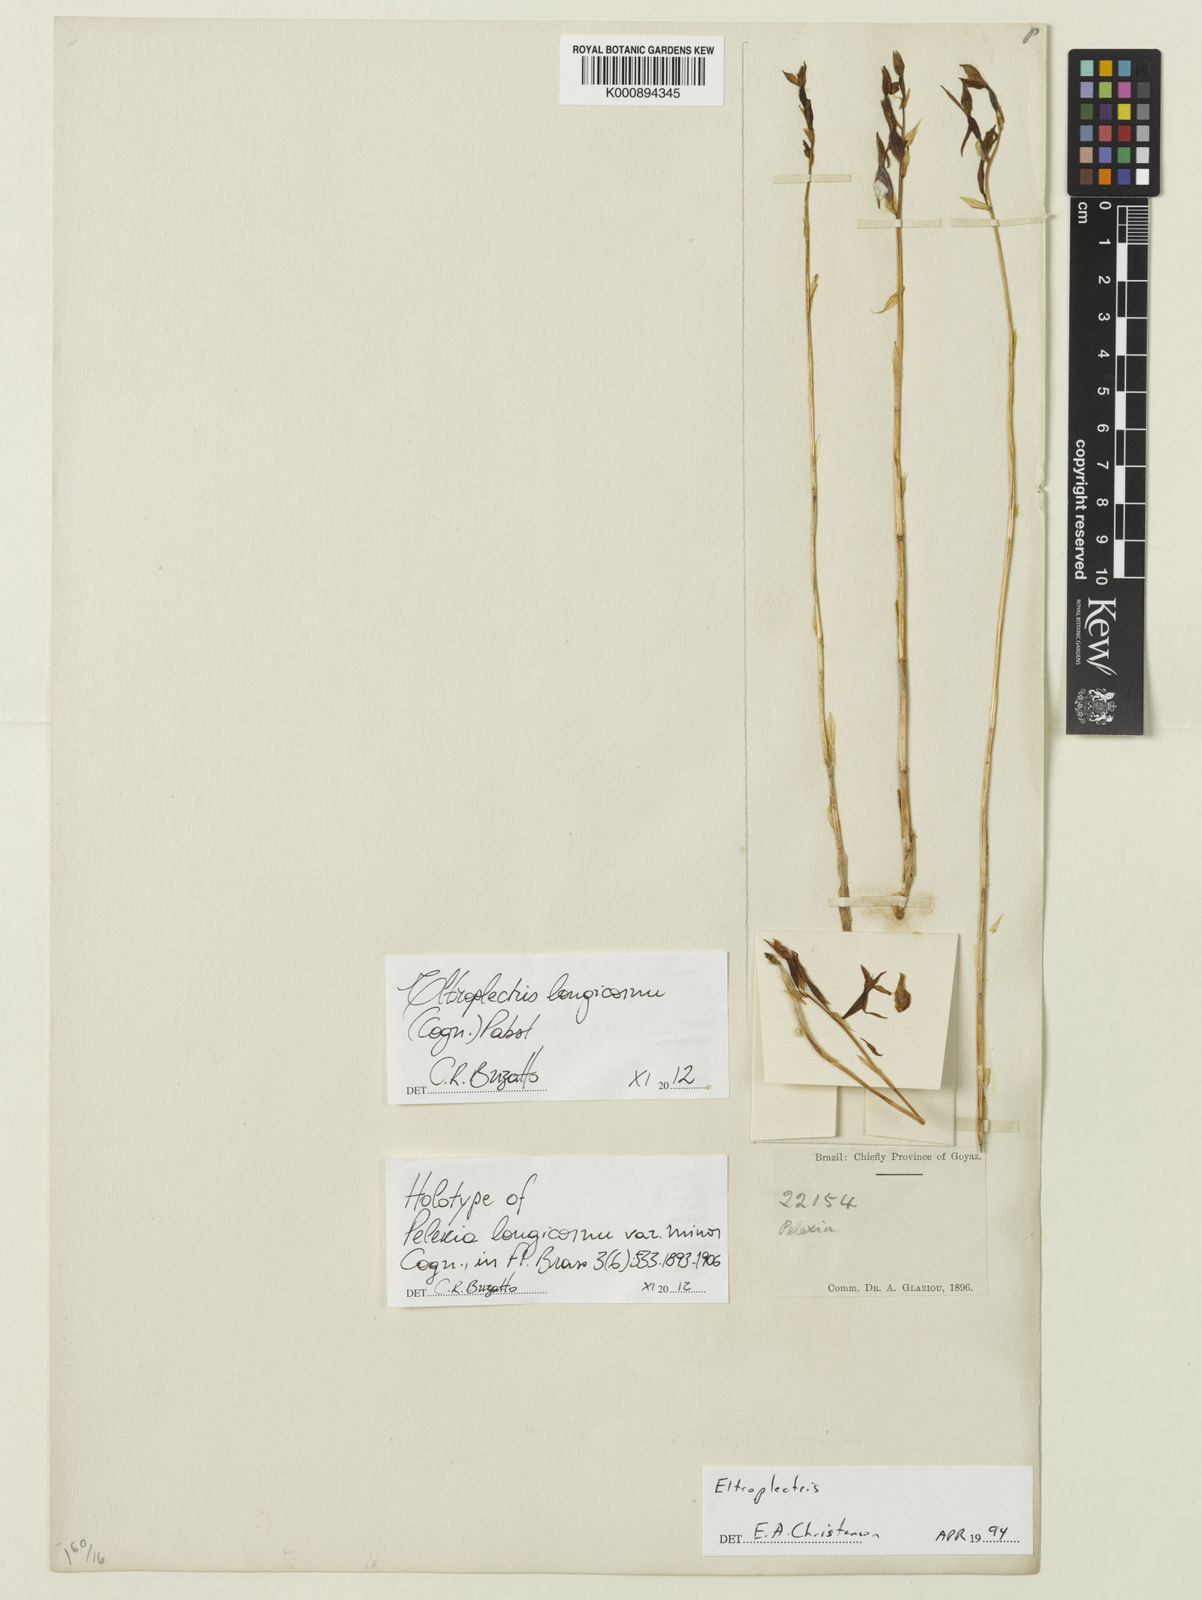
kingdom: Plantae
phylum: Tracheophyta
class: Liliopsida
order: Asparagales
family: Orchidaceae
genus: Eltroplectris
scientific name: Eltroplectris longicornu
